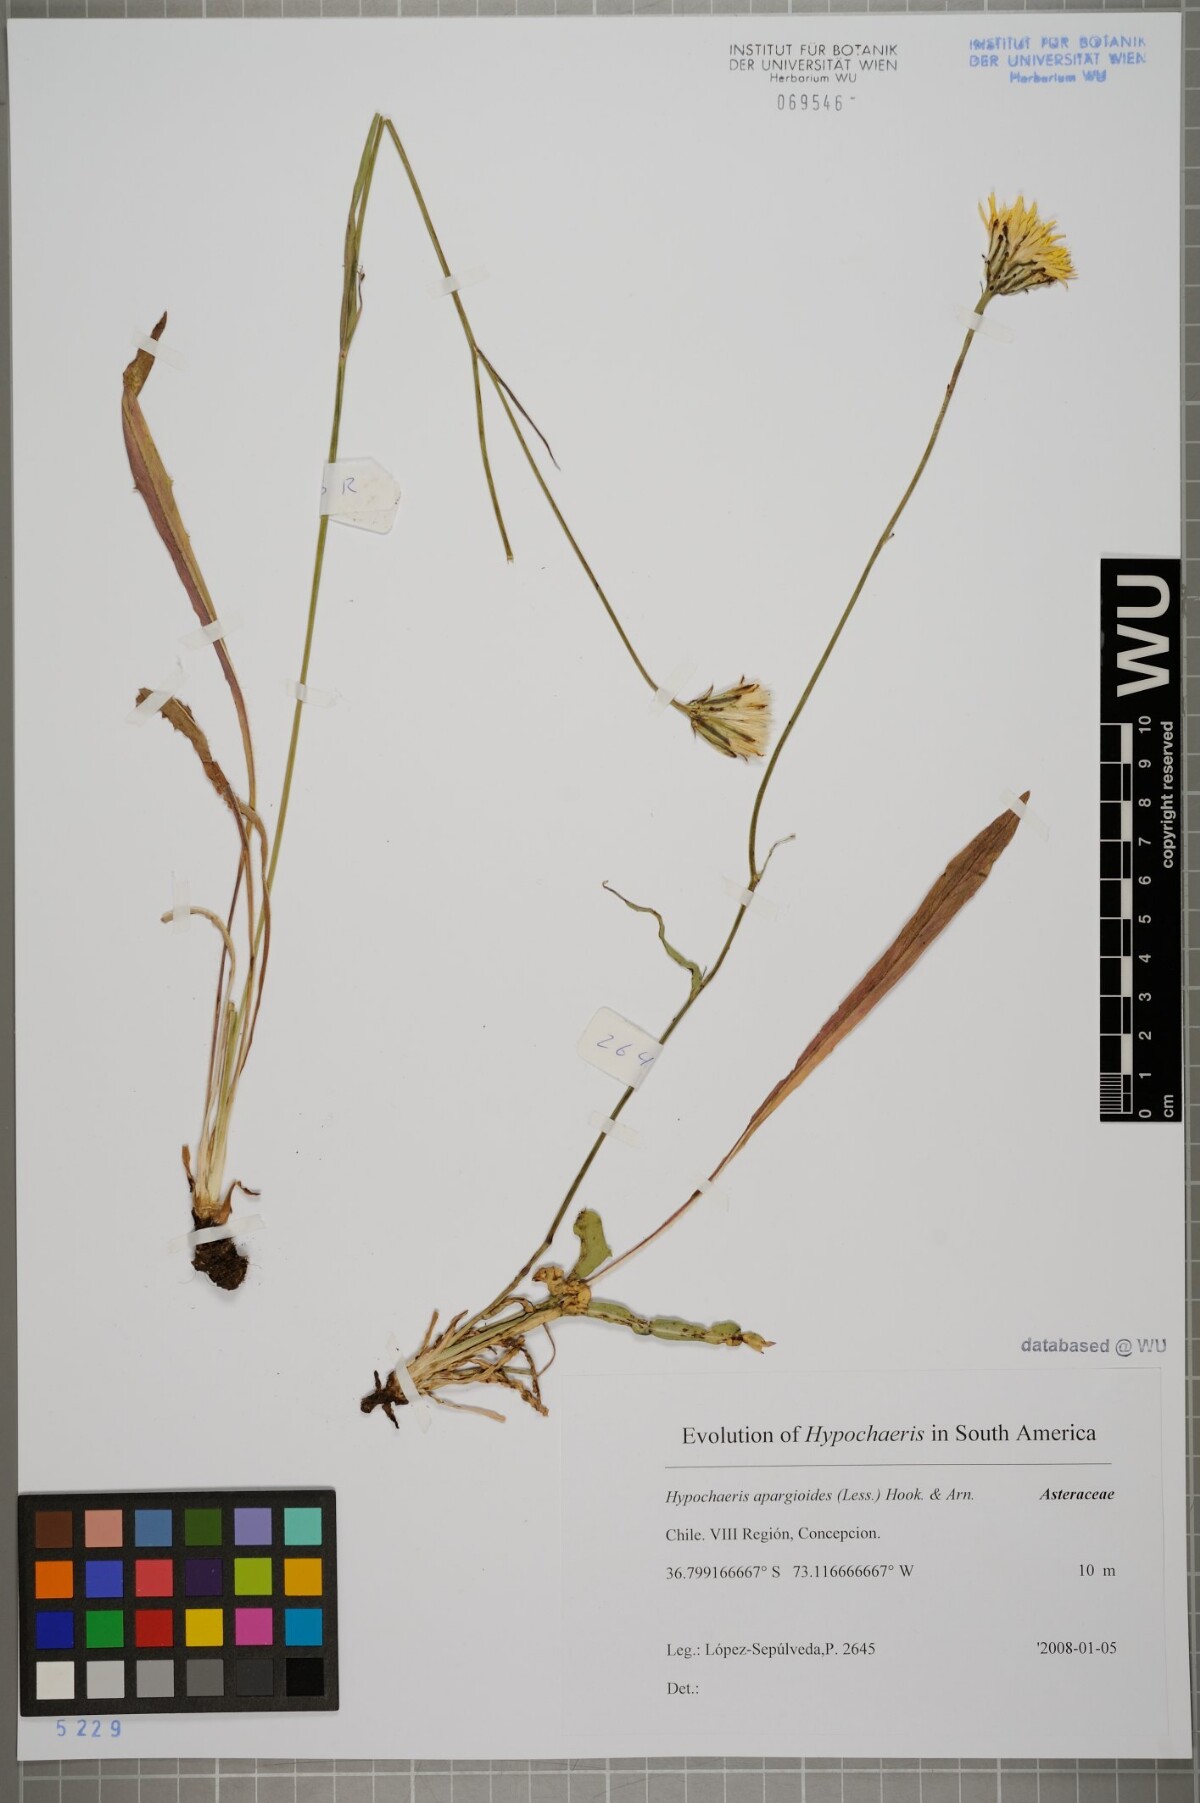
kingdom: Plantae
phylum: Tracheophyta
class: Magnoliopsida
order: Asterales
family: Asteraceae
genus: Hypochaeris
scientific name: Hypochaeris apargioides
